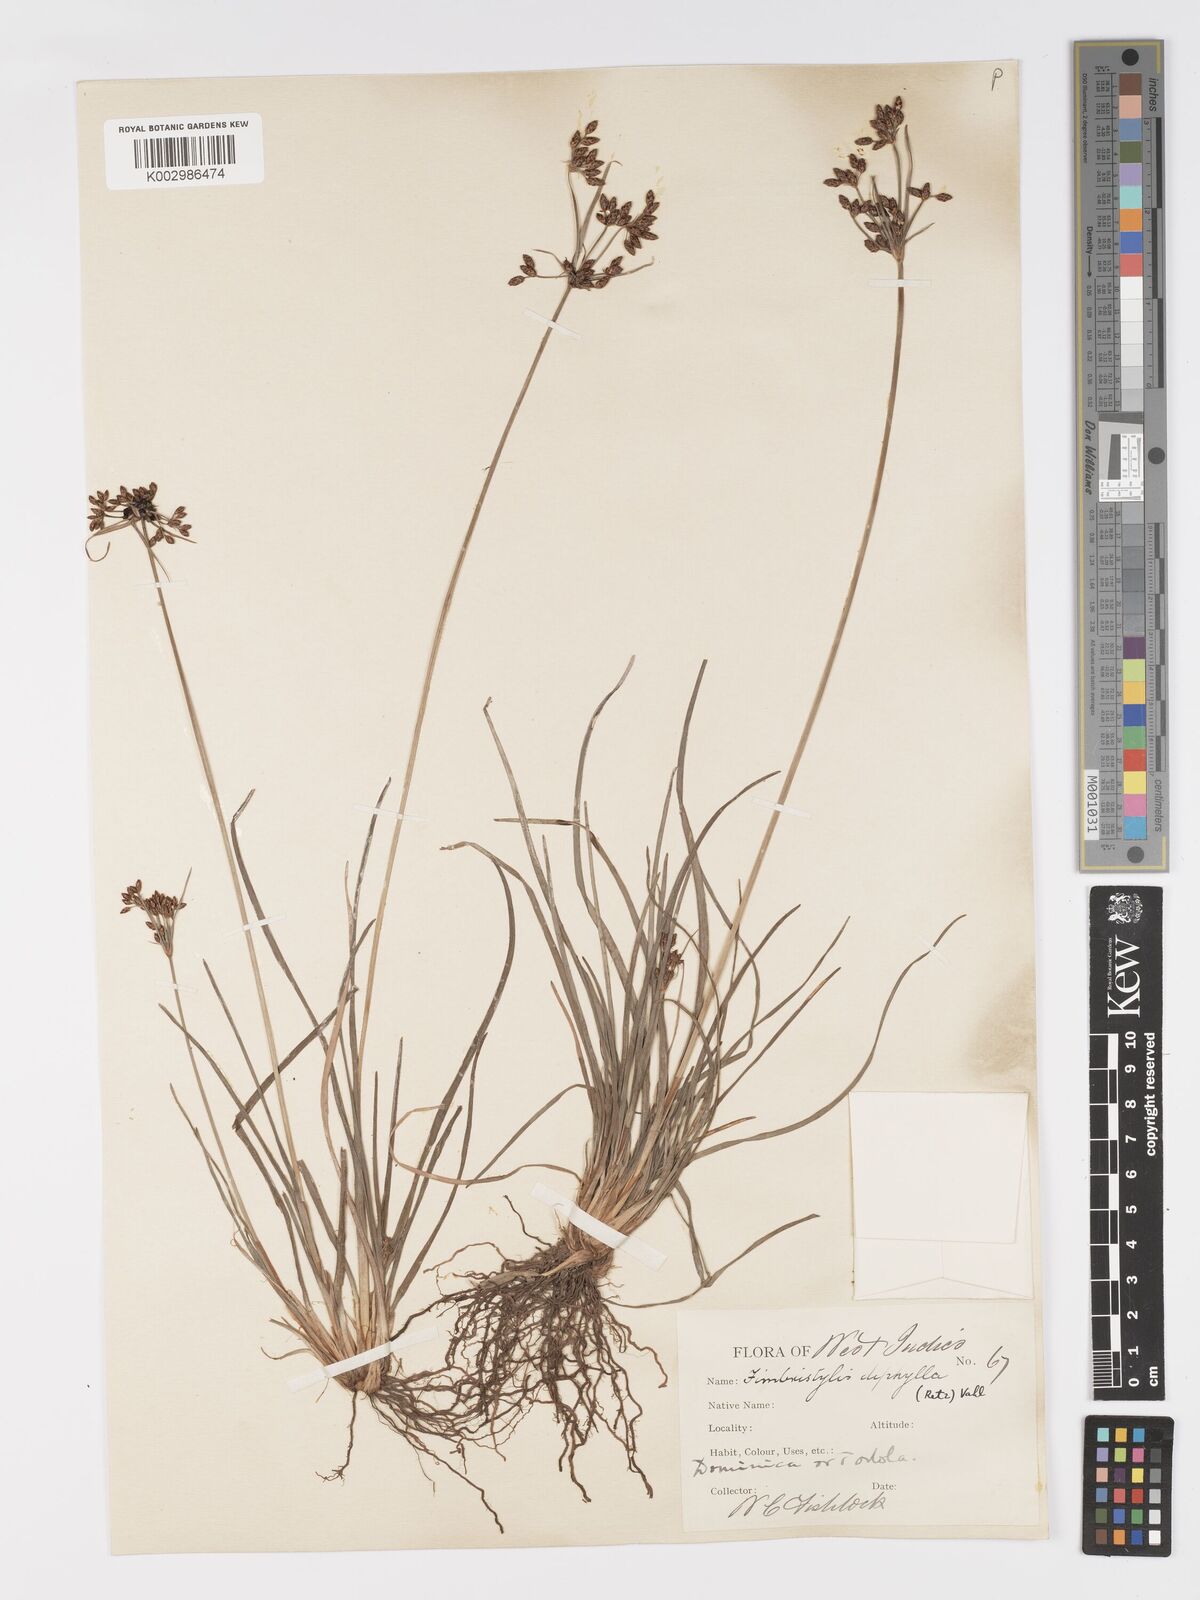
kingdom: Plantae
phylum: Tracheophyta
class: Liliopsida
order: Poales
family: Cyperaceae
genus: Fimbristylis
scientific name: Fimbristylis dichotoma
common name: Forked fimbry
